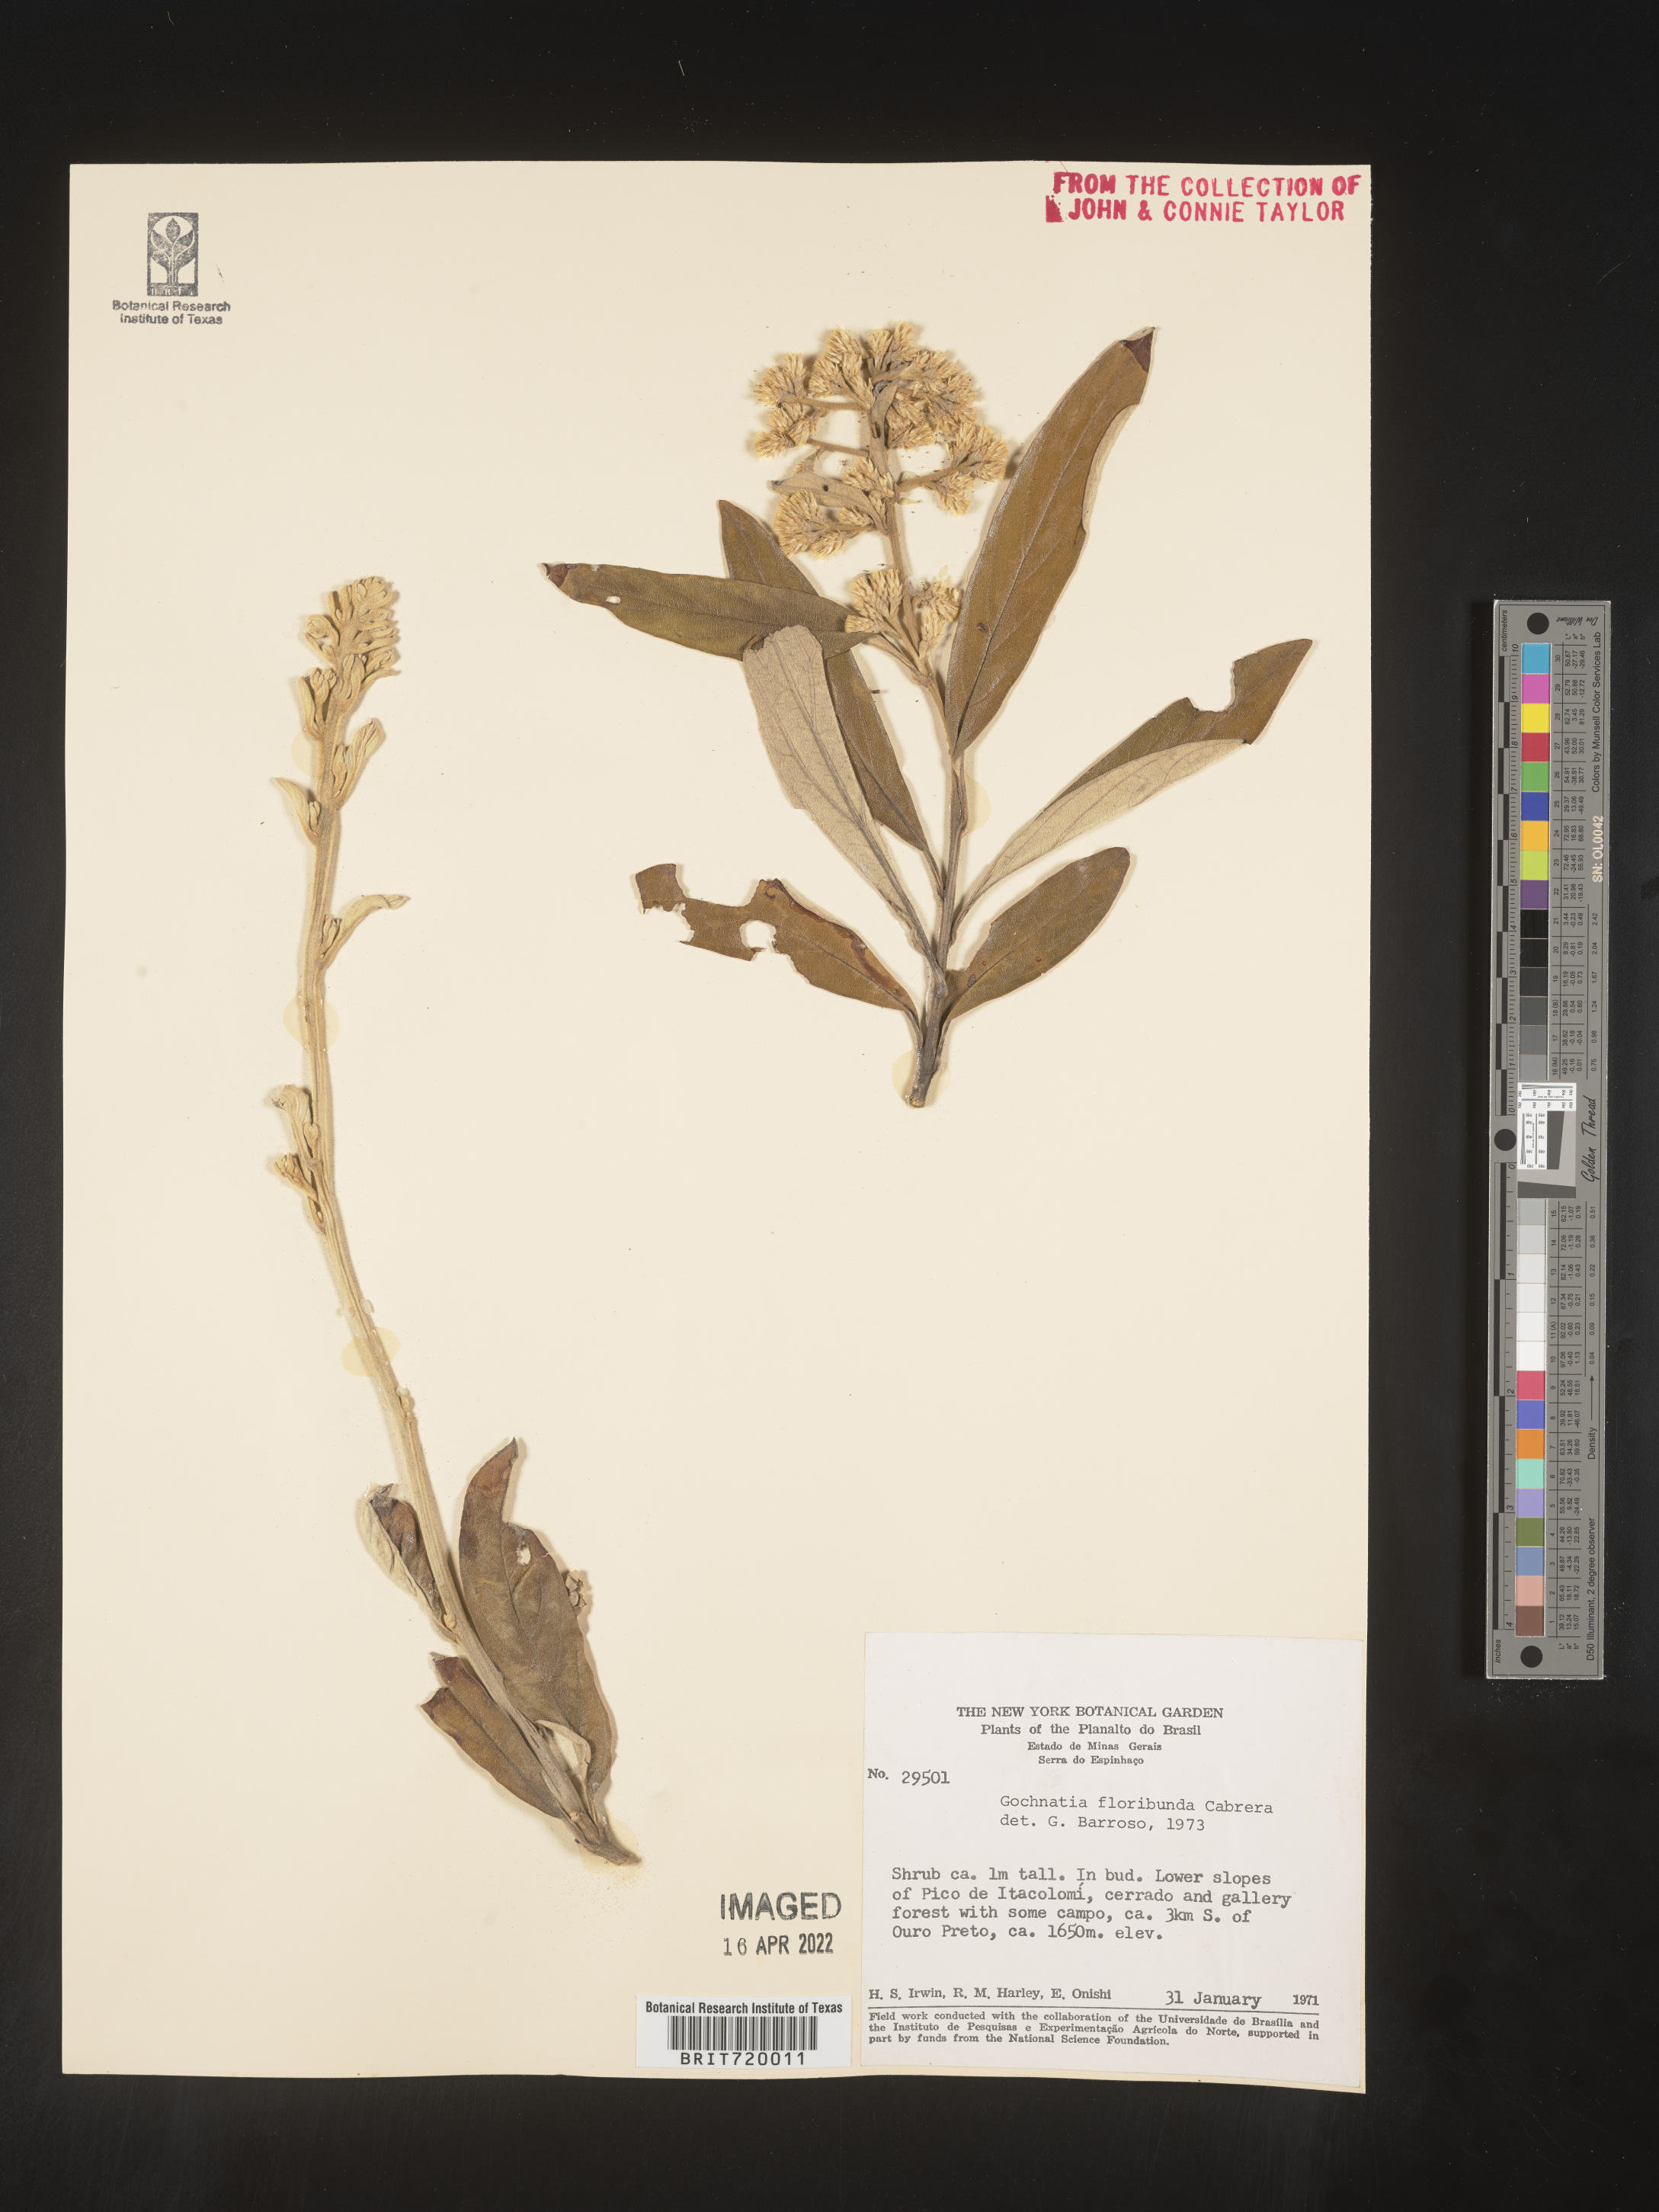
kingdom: Plantae
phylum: Tracheophyta
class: Magnoliopsida
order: Asterales
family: Asteraceae
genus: Gochnatia
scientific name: Gochnatia
